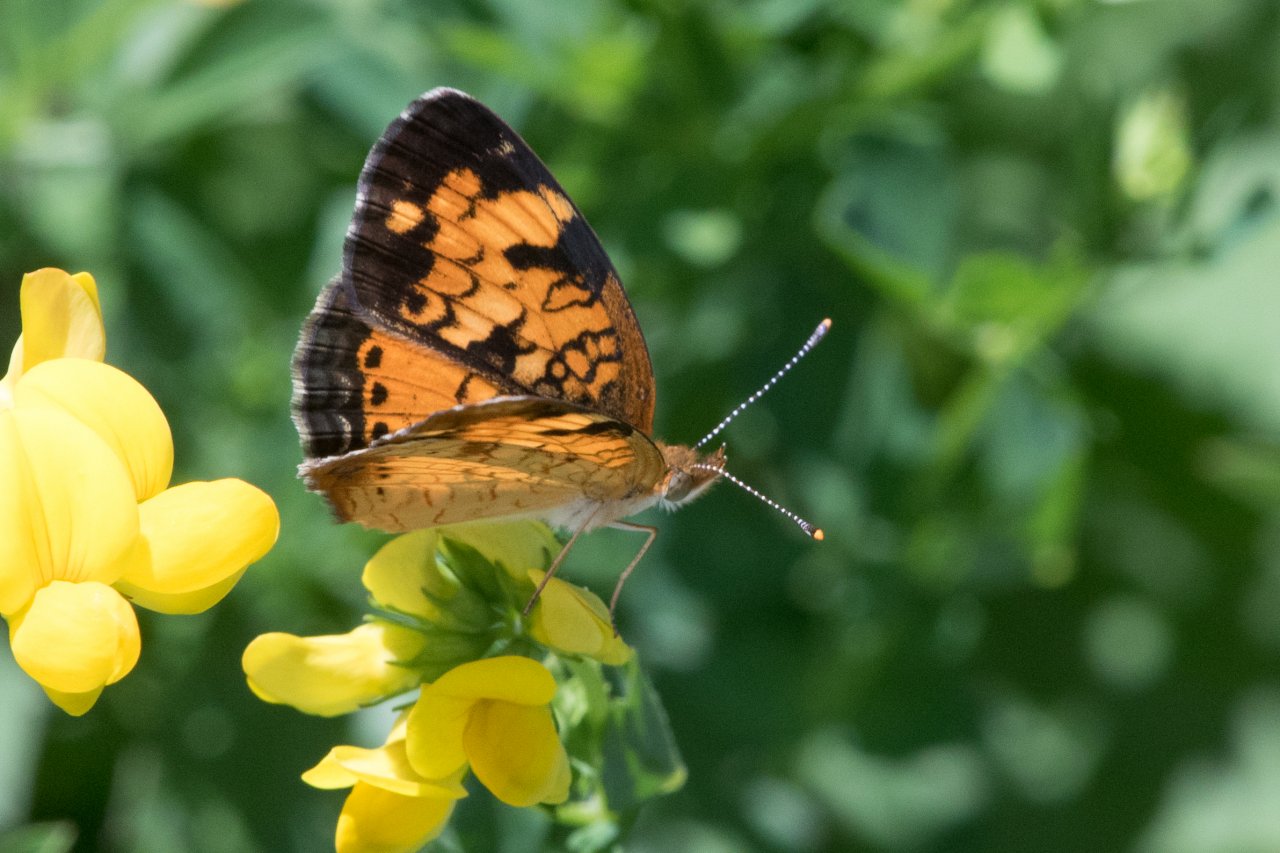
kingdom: Animalia
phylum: Arthropoda
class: Insecta
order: Lepidoptera
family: Nymphalidae
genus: Phyciodes
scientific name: Phyciodes
